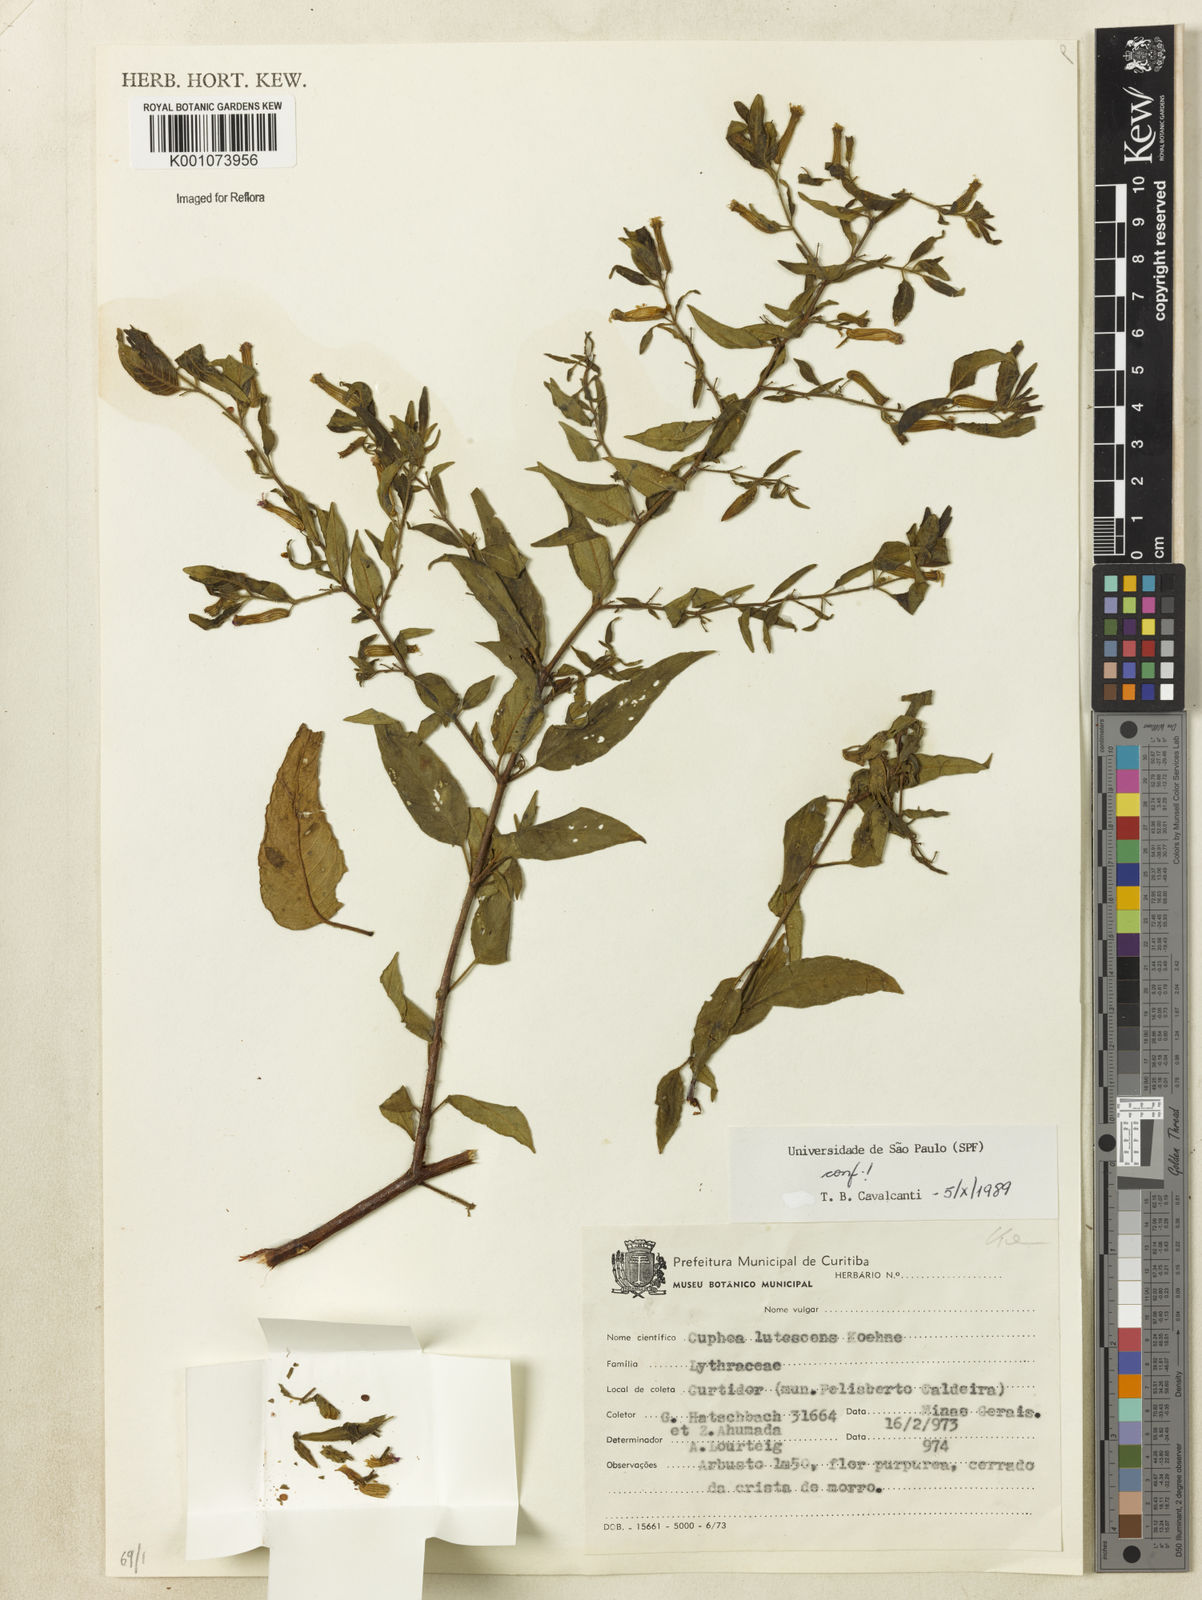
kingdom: Plantae
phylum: Tracheophyta
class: Magnoliopsida
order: Myrtales
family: Lythraceae
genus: Cuphea
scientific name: Cuphea lutescens
